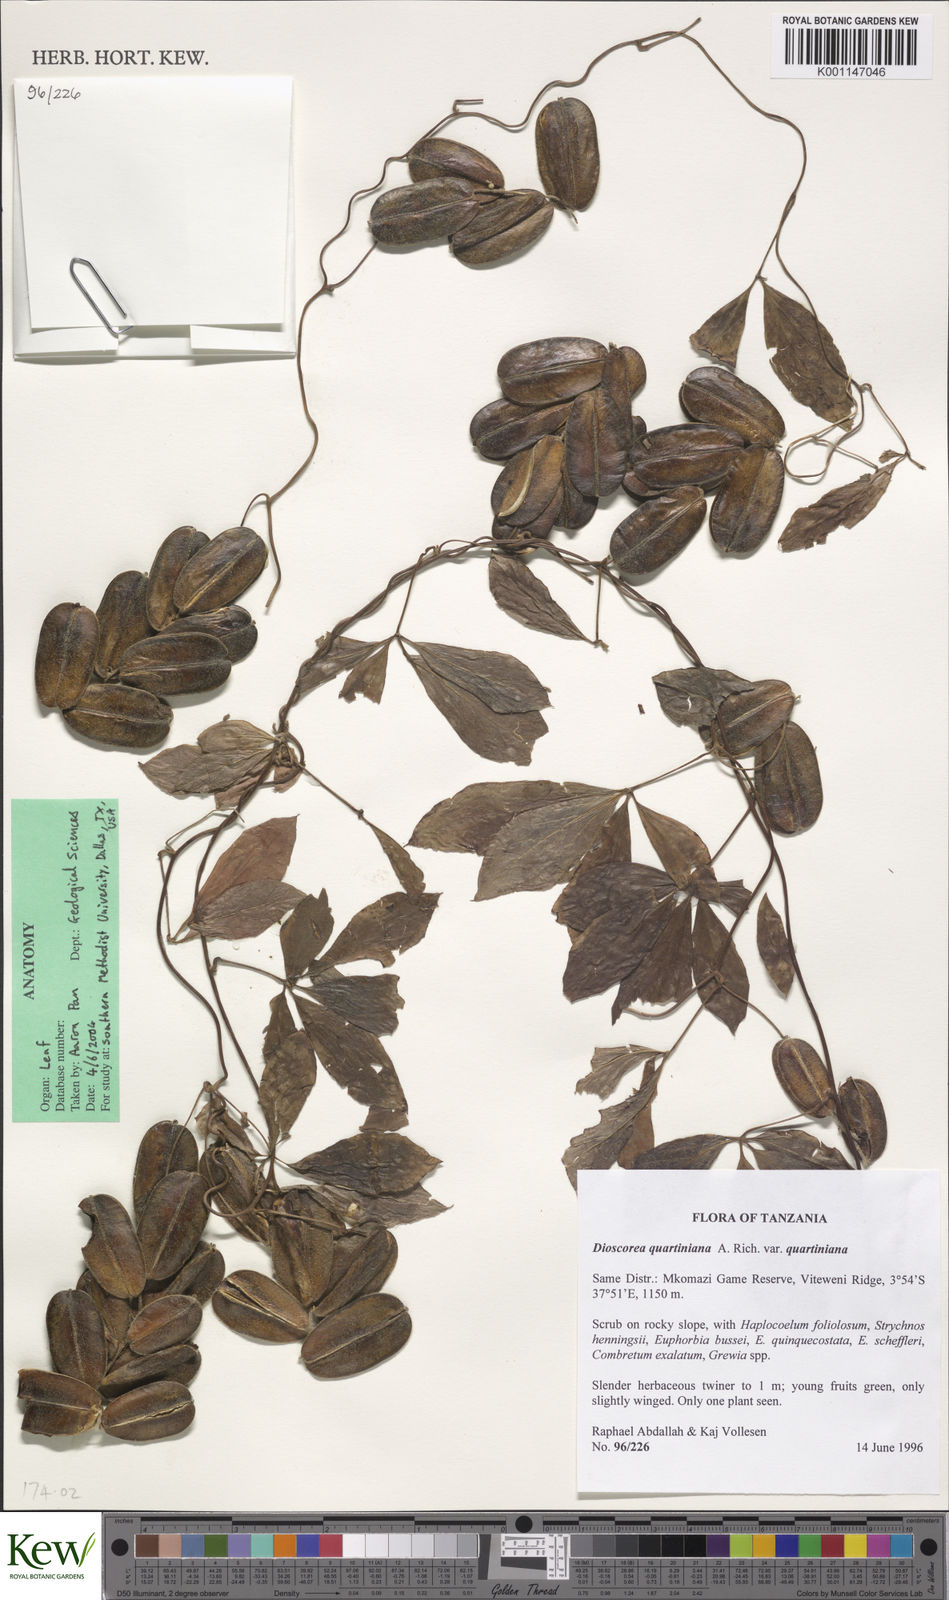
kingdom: Plantae
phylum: Tracheophyta
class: Liliopsida
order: Dioscoreales
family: Dioscoreaceae
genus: Dioscorea
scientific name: Dioscorea quartiniana
